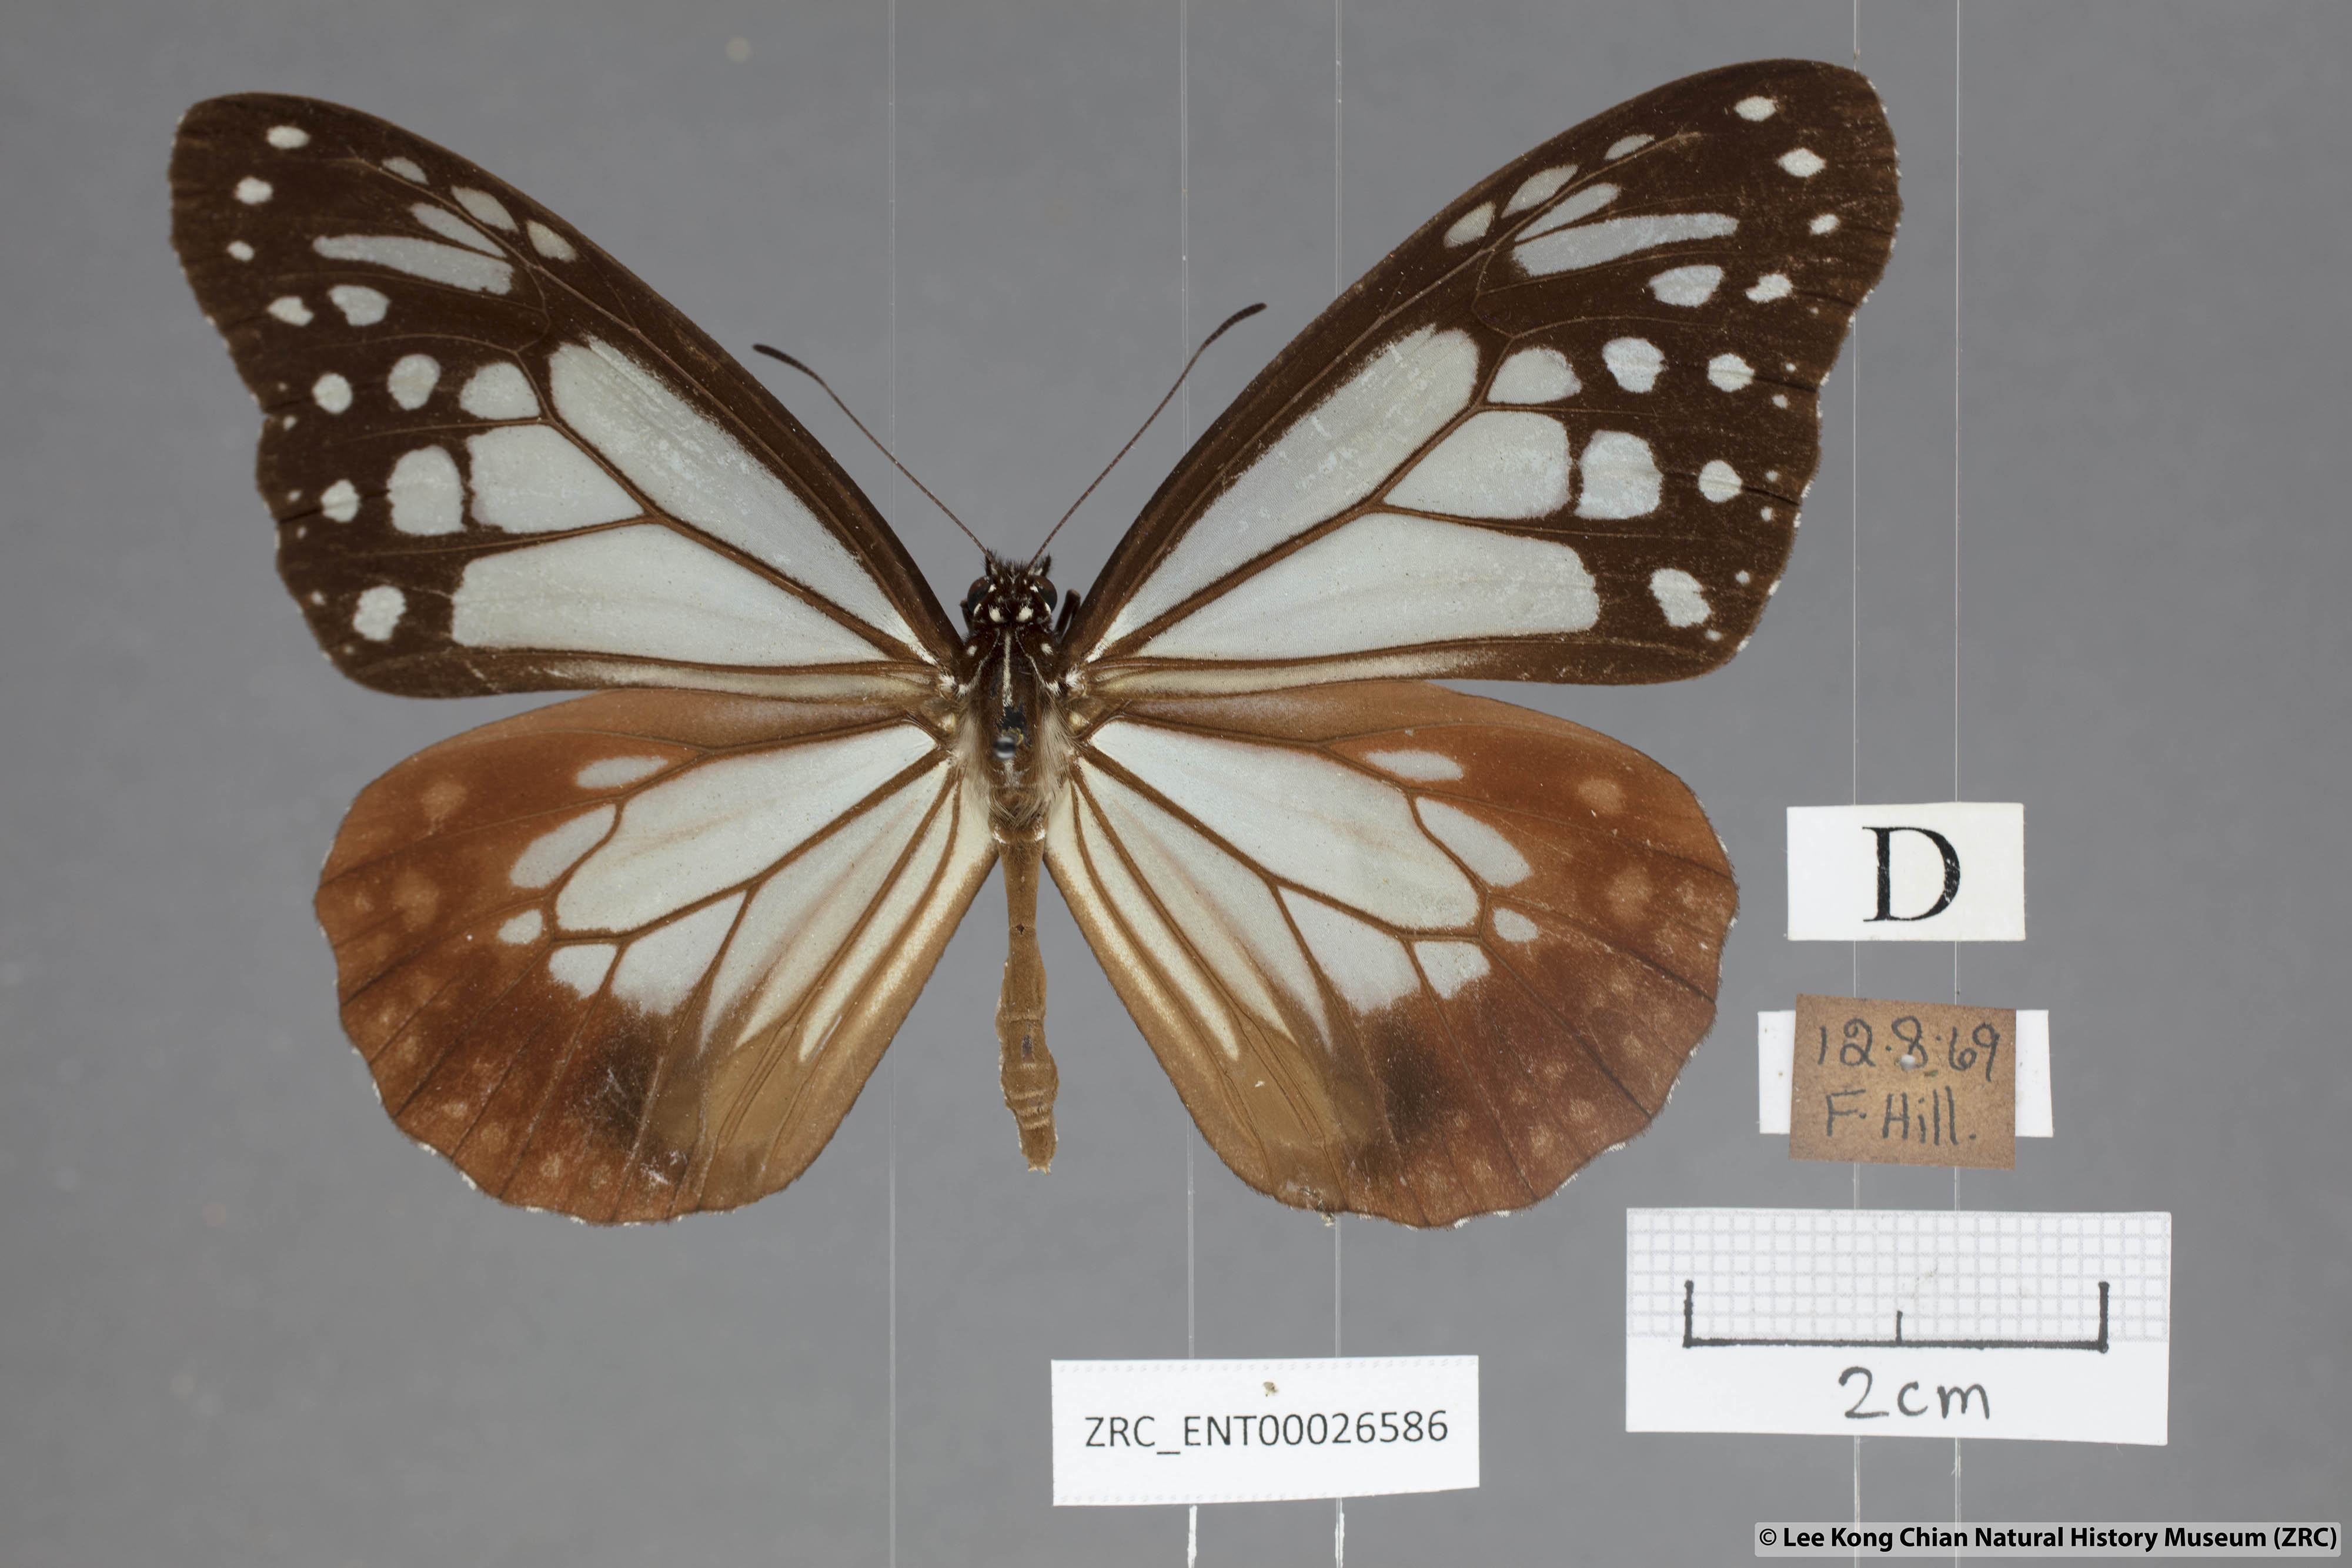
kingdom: Animalia
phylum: Arthropoda
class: Insecta
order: Lepidoptera
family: Nymphalidae
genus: Parantica
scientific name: Parantica sita
